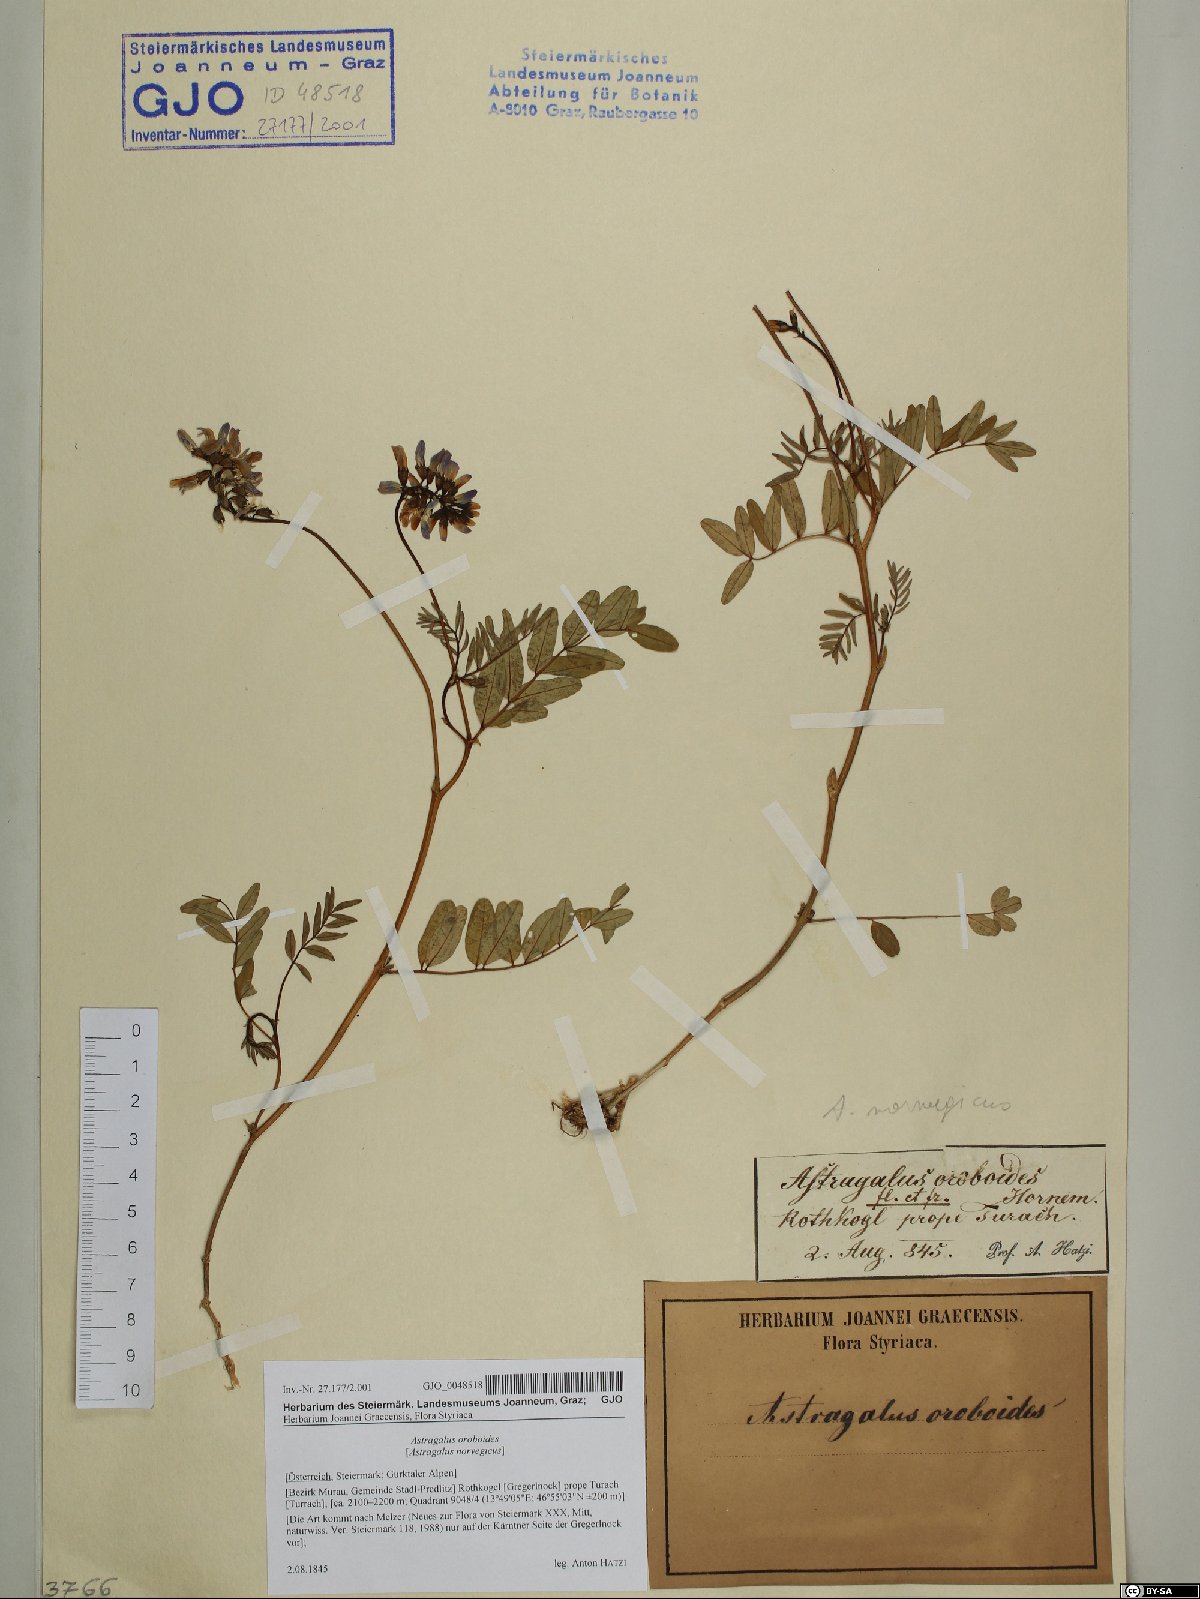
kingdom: Plantae
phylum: Tracheophyta
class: Magnoliopsida
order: Fabales
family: Fabaceae
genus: Astragalus
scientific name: Astragalus norvegicus
